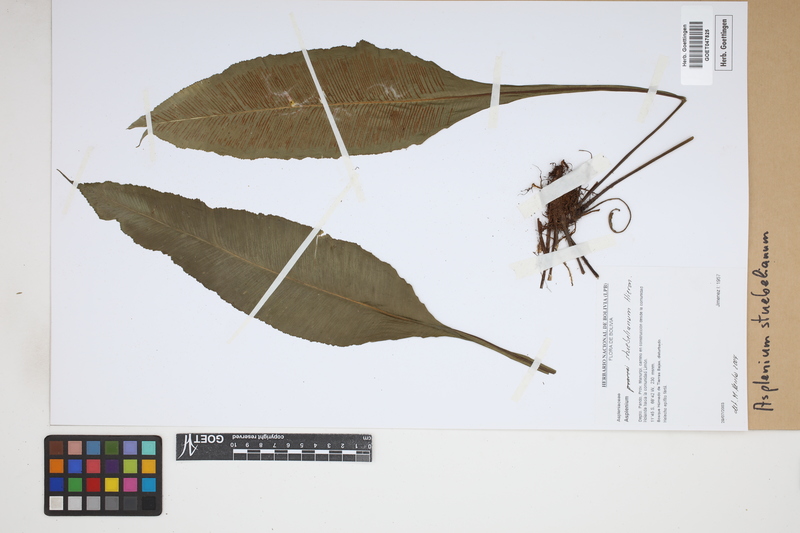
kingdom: Plantae
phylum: Tracheophyta
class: Polypodiopsida
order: Polypodiales
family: Aspleniaceae
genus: Asplenium
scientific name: Asplenium stuebelianum
